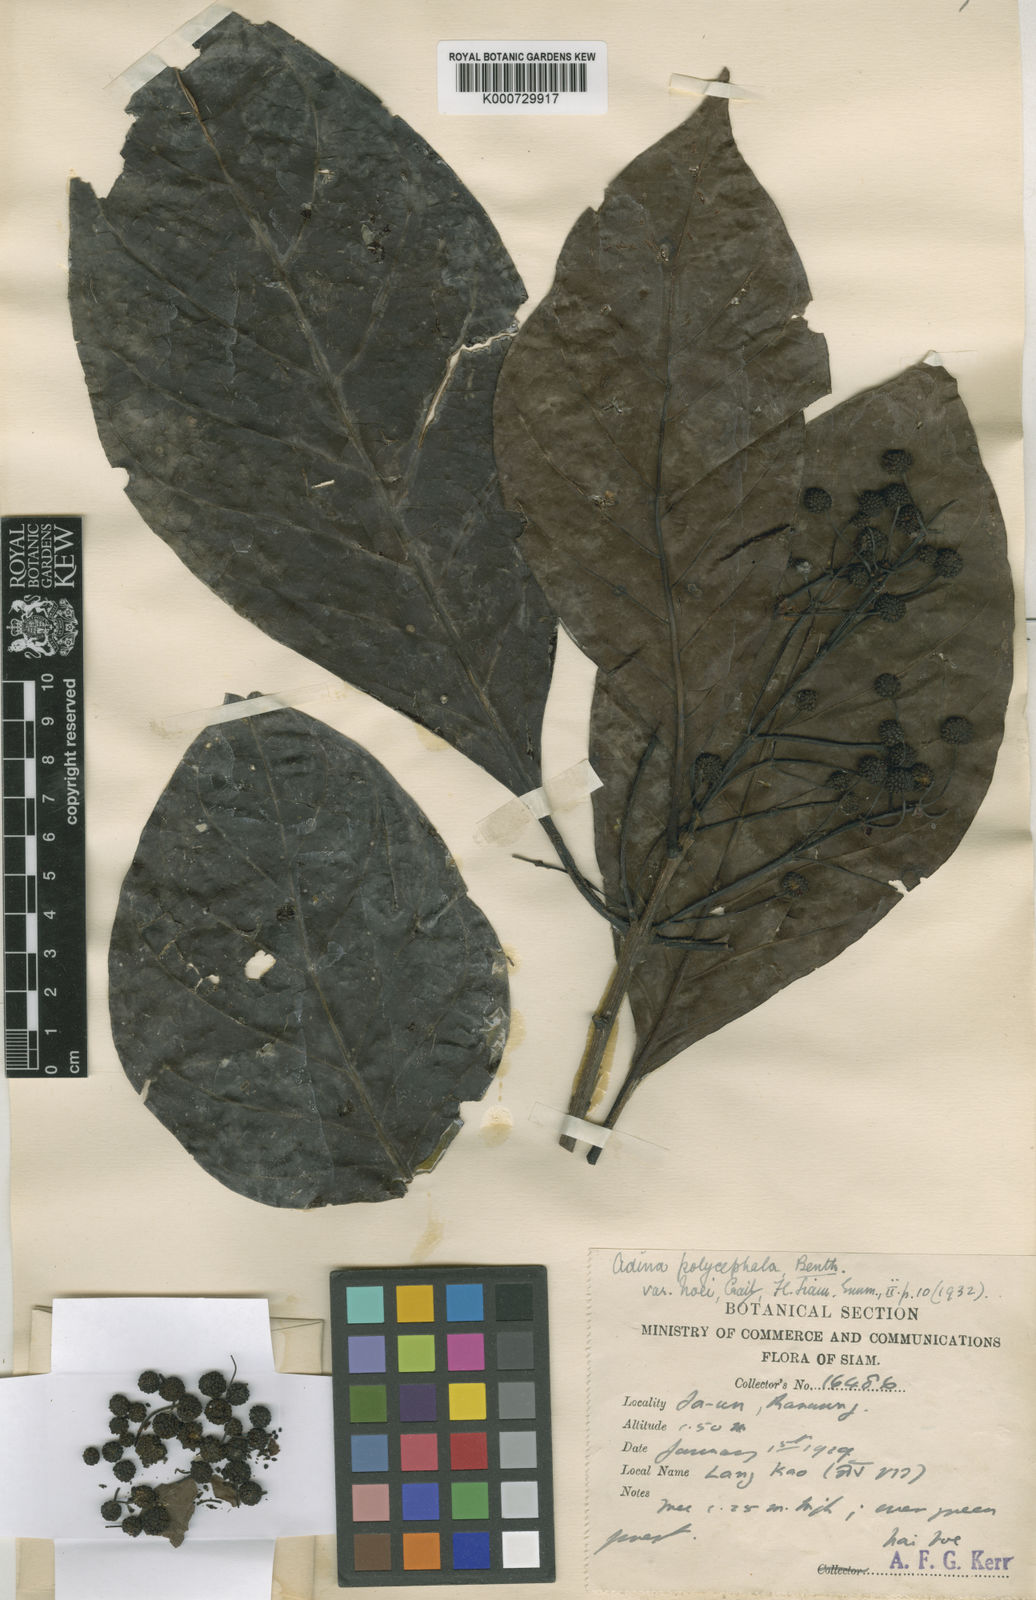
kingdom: Plantae
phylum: Tracheophyta
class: Magnoliopsida
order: Gentianales
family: Rubiaceae
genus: Adina
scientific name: Adina trichotoma
